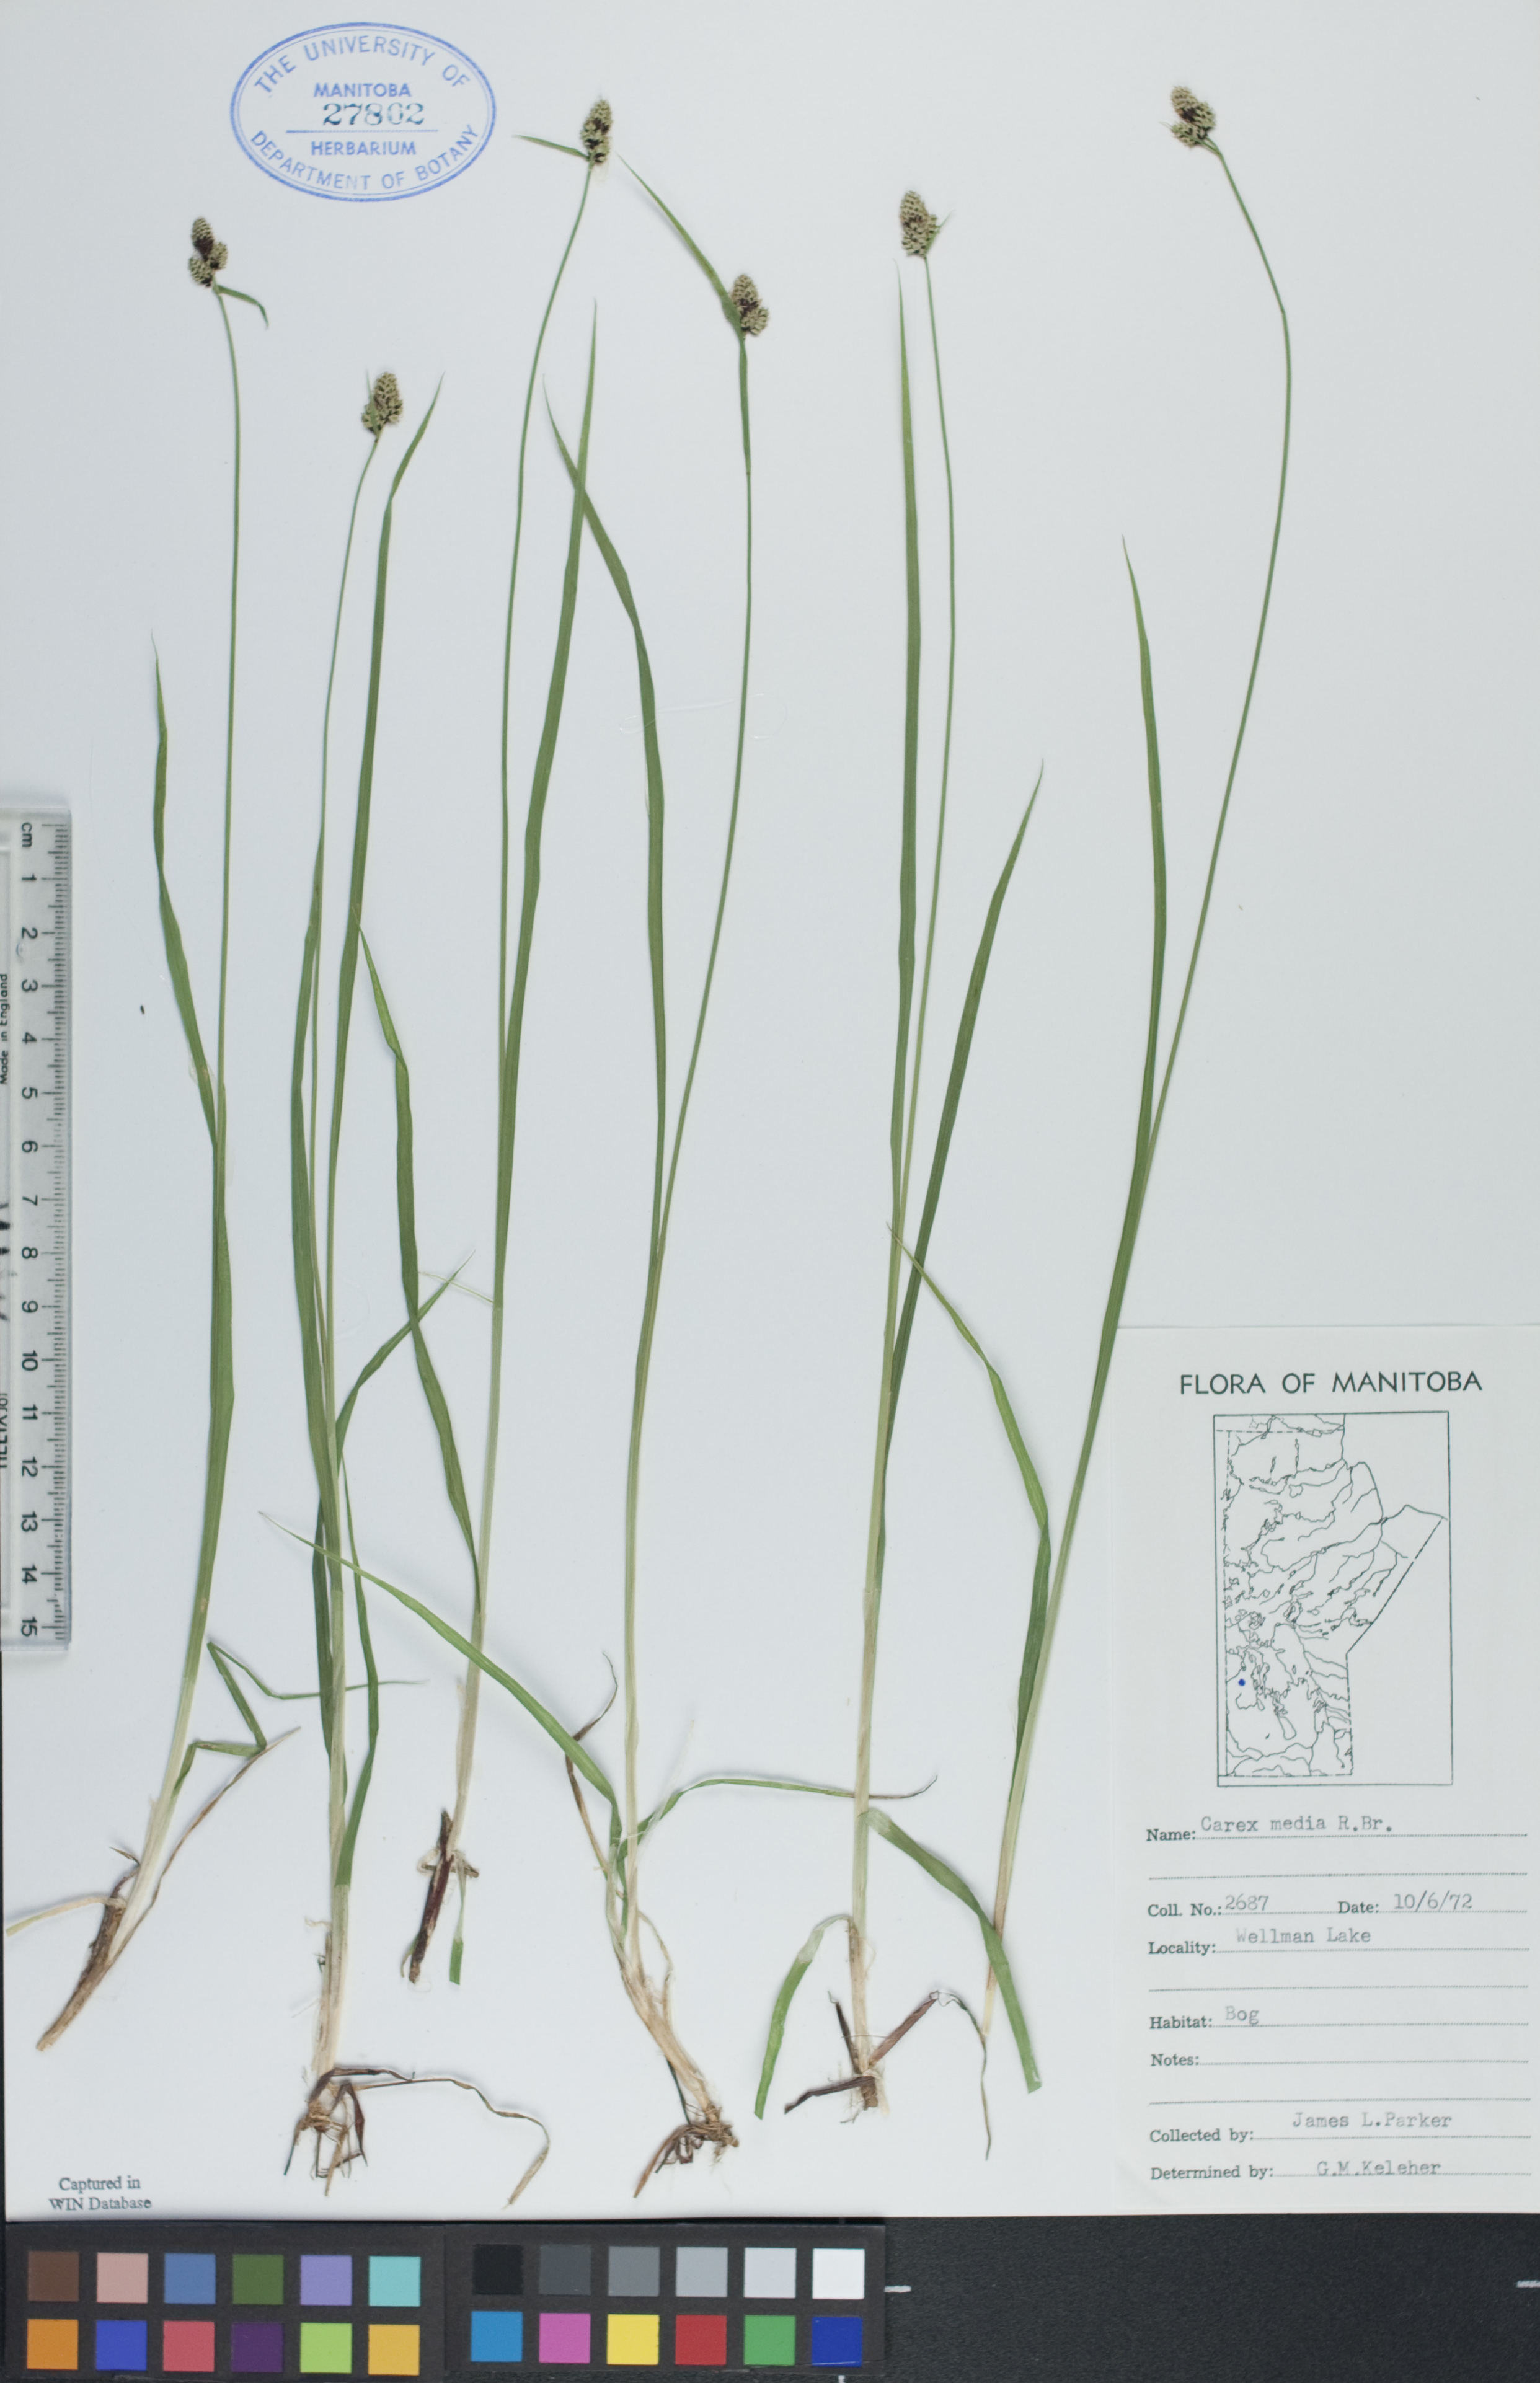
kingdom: Plantae
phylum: Tracheophyta
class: Liliopsida
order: Poales
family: Cyperaceae
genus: Carex
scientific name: Carex media
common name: Alpine sedge
